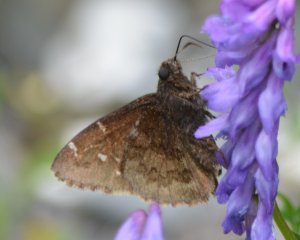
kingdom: Animalia
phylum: Arthropoda
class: Insecta
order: Lepidoptera
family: Hesperiidae
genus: Autochton
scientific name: Autochton
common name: Northern Cloudywing
